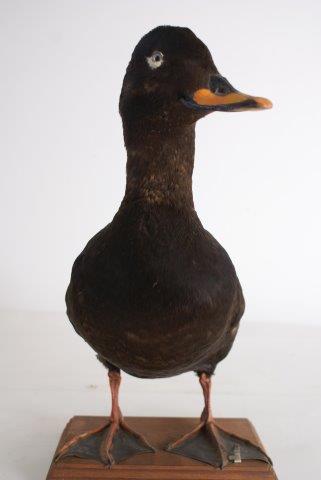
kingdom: Animalia
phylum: Chordata
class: Aves
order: Anseriformes
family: Anatidae
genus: Melanitta
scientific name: Melanitta fusca
